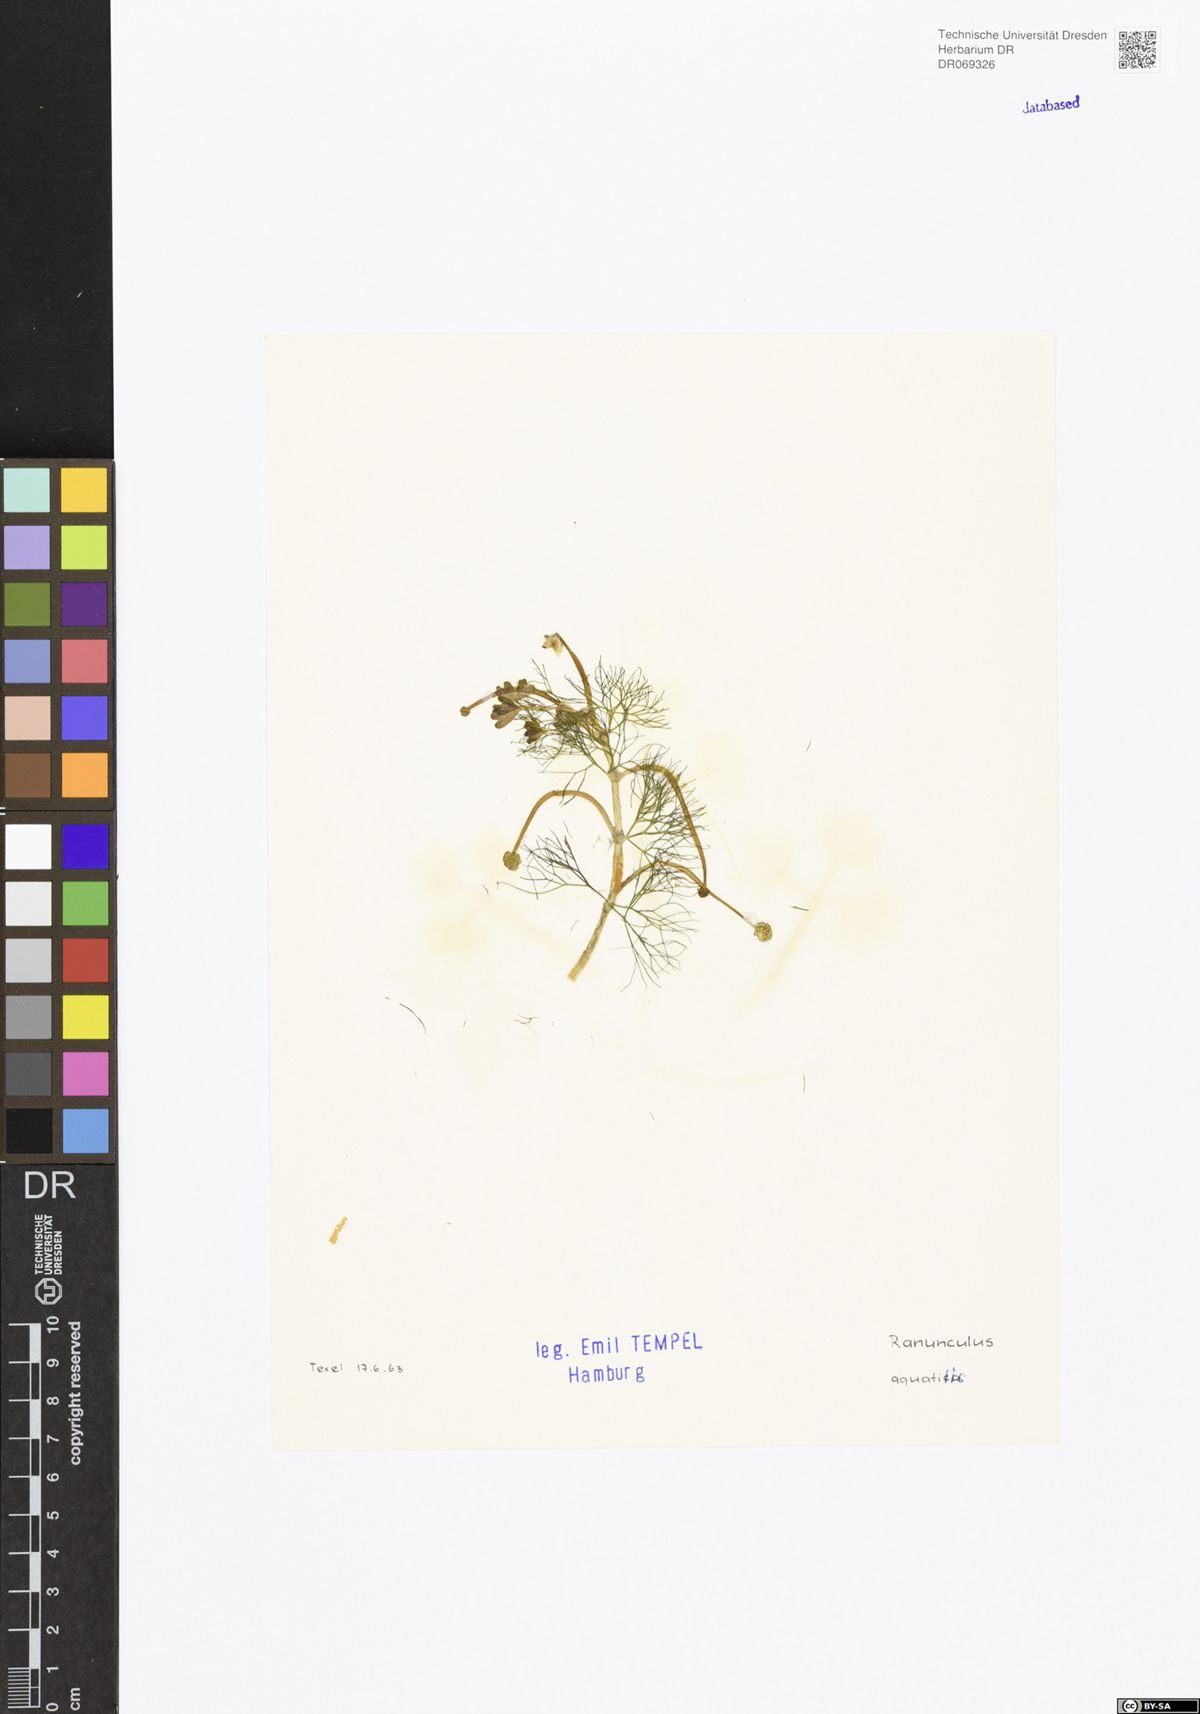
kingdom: Plantae
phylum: Tracheophyta
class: Magnoliopsida
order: Ranunculales
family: Ranunculaceae
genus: Ranunculus
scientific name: Ranunculus aquatilis
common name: Common water-crowfoot
